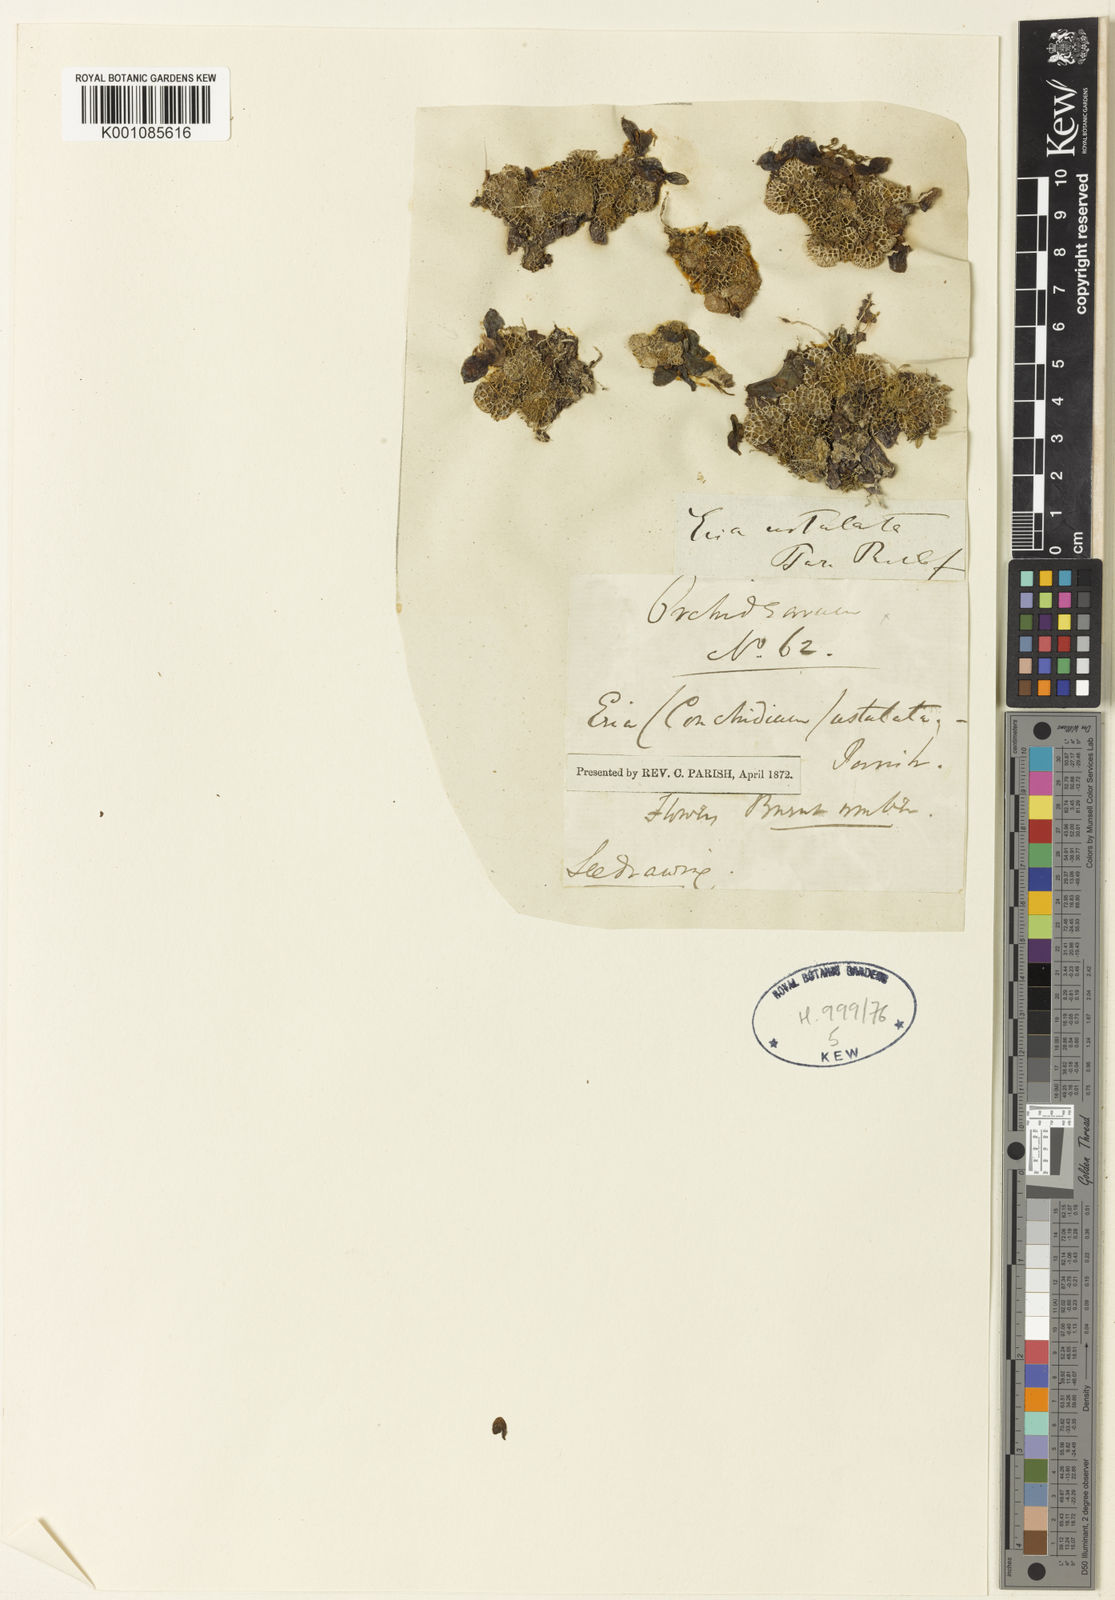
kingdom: Plantae
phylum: Tracheophyta
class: Liliopsida
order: Asparagales
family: Orchidaceae
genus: Porpax
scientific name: Porpax ustulata
